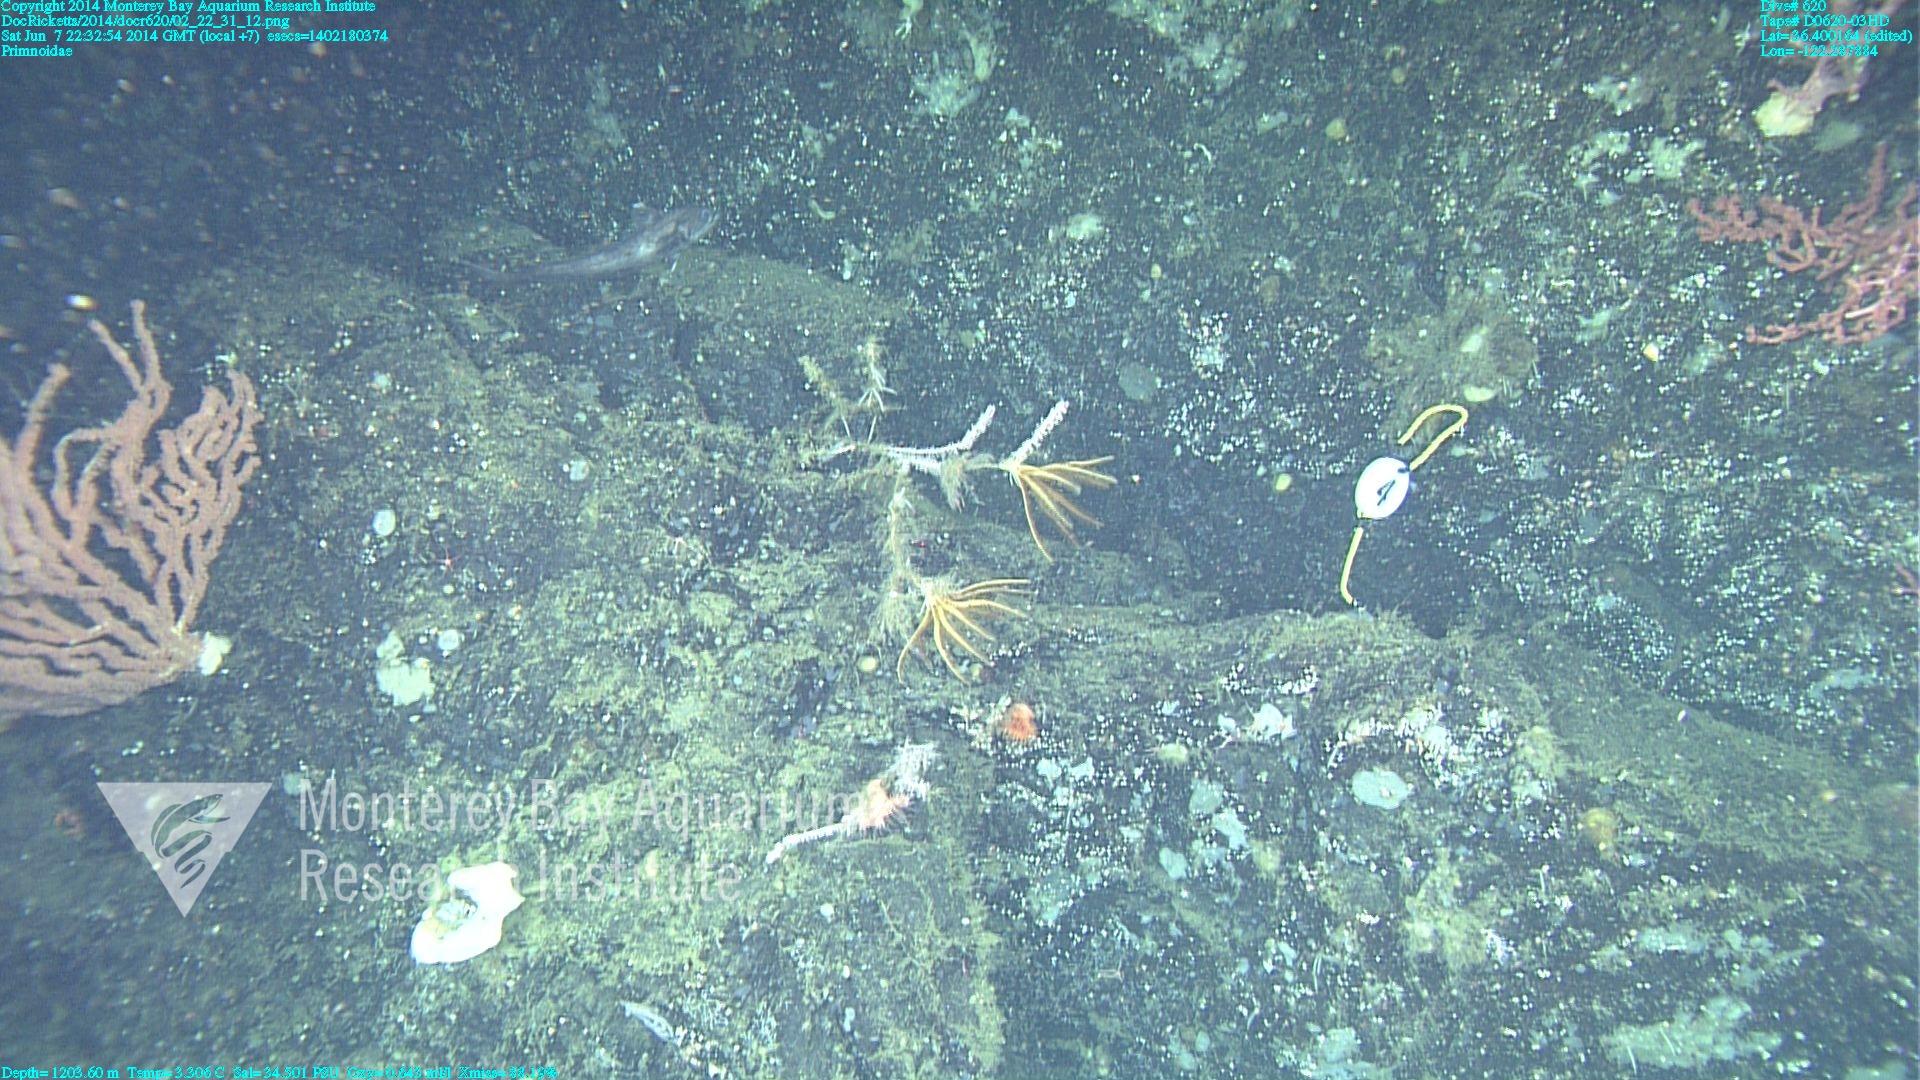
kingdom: Animalia
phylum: Cnidaria
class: Anthozoa
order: Scleralcyonacea
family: Primnoidae
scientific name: Primnoidae
